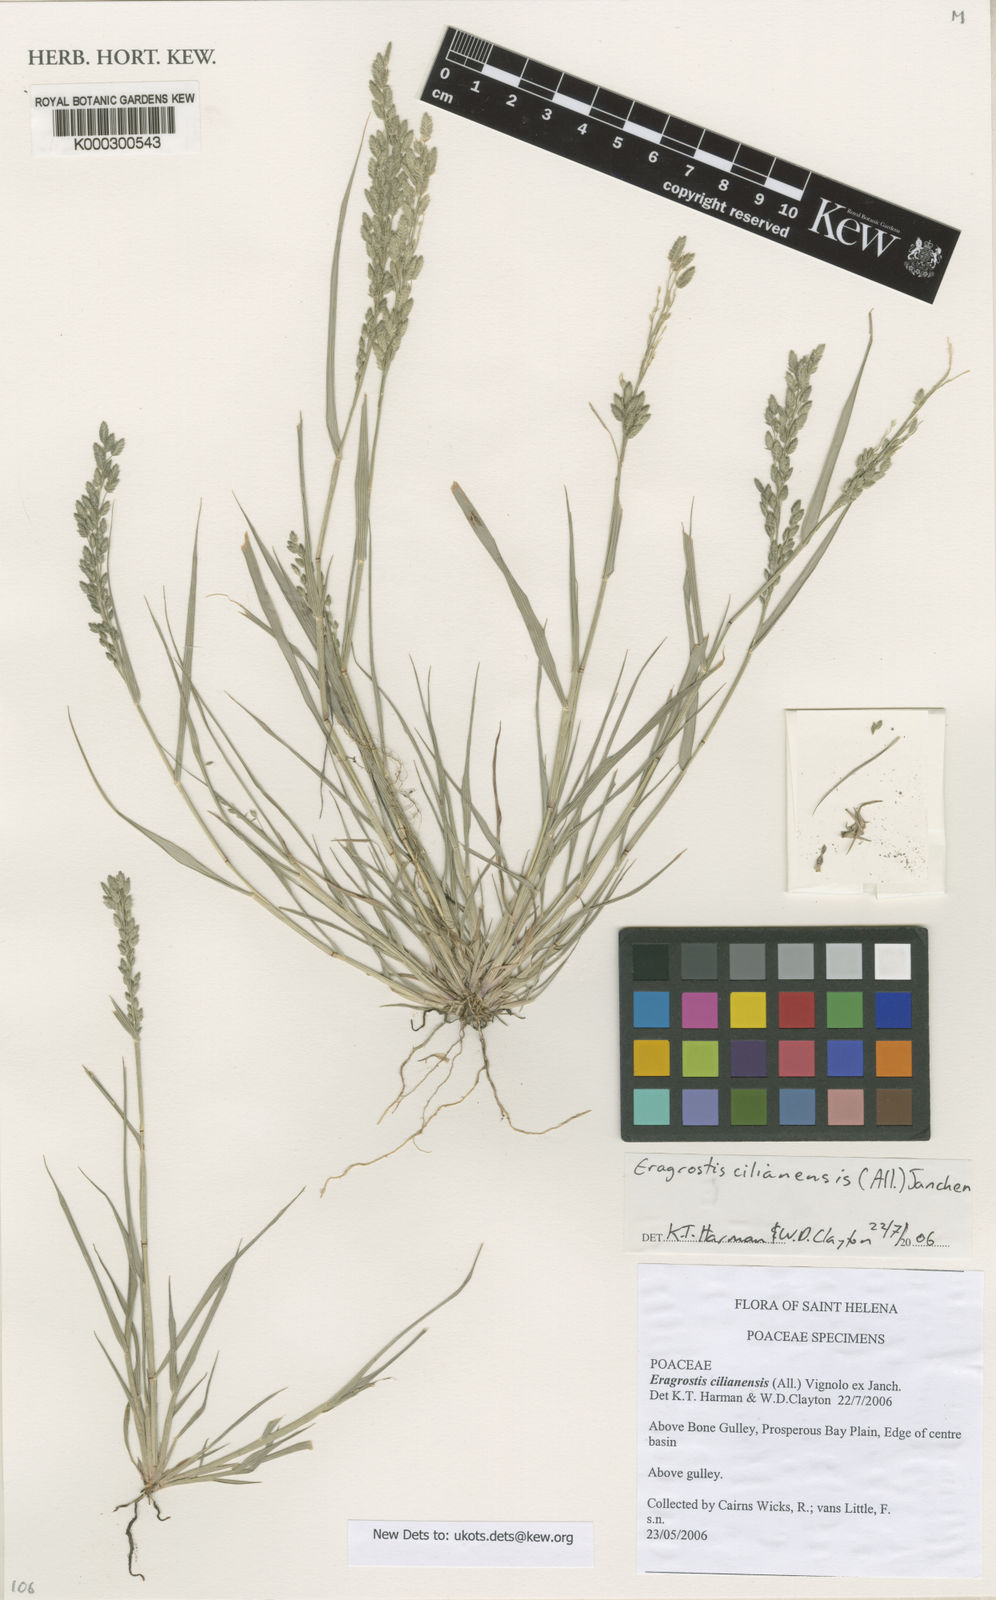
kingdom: Plantae
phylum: Tracheophyta
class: Liliopsida
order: Poales
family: Poaceae
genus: Eragrostis
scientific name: Eragrostis cilianensis
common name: Stinkgrass
